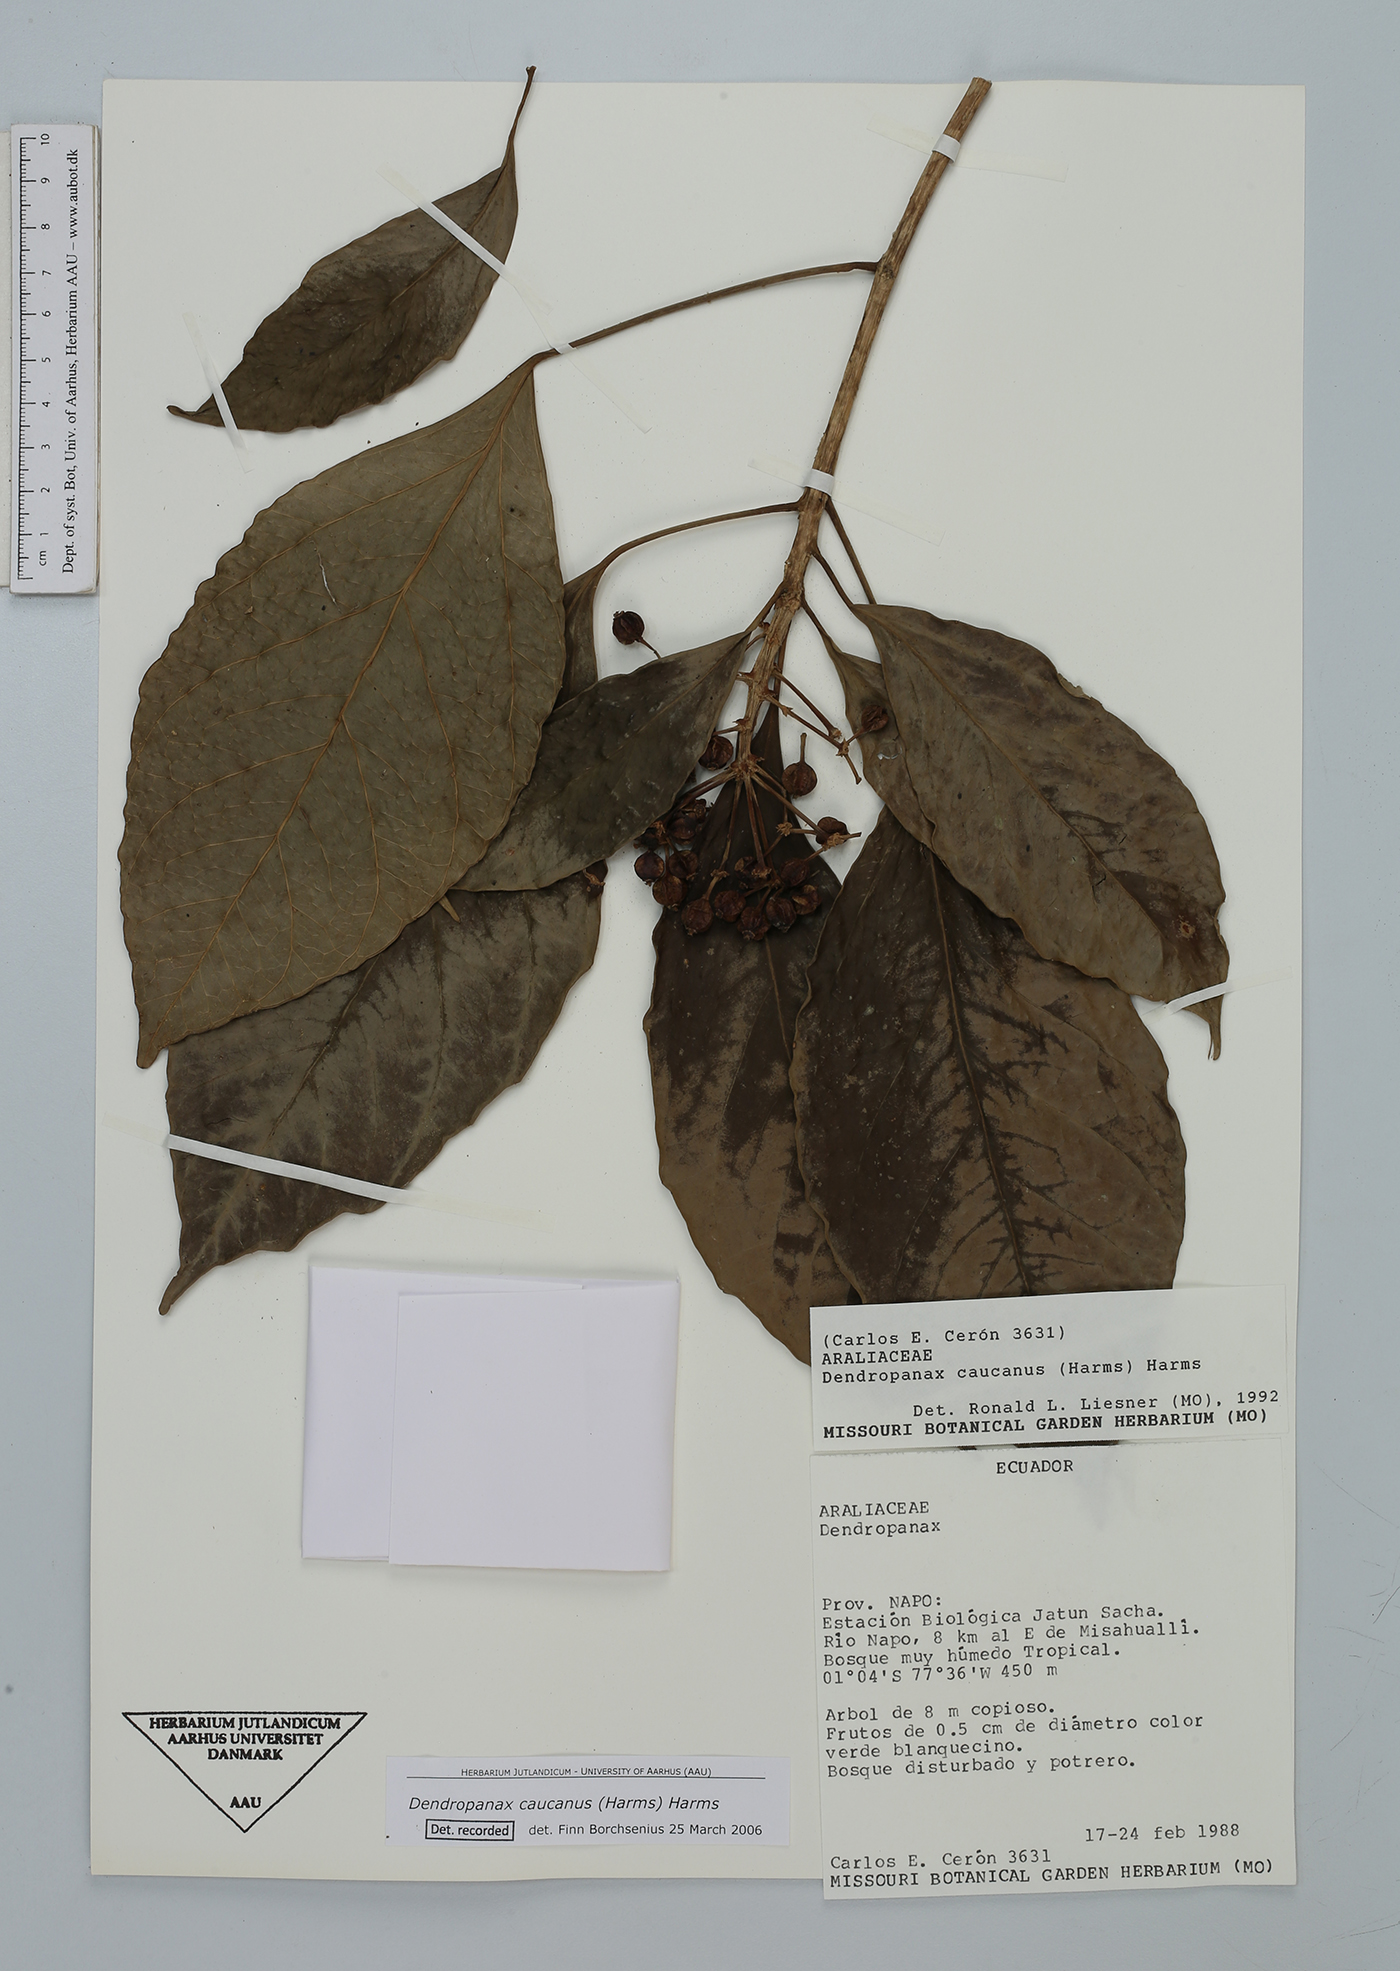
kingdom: Plantae
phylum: Tracheophyta
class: Magnoliopsida
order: Apiales
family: Araliaceae
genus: Dendropanax
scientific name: Dendropanax caucanus
